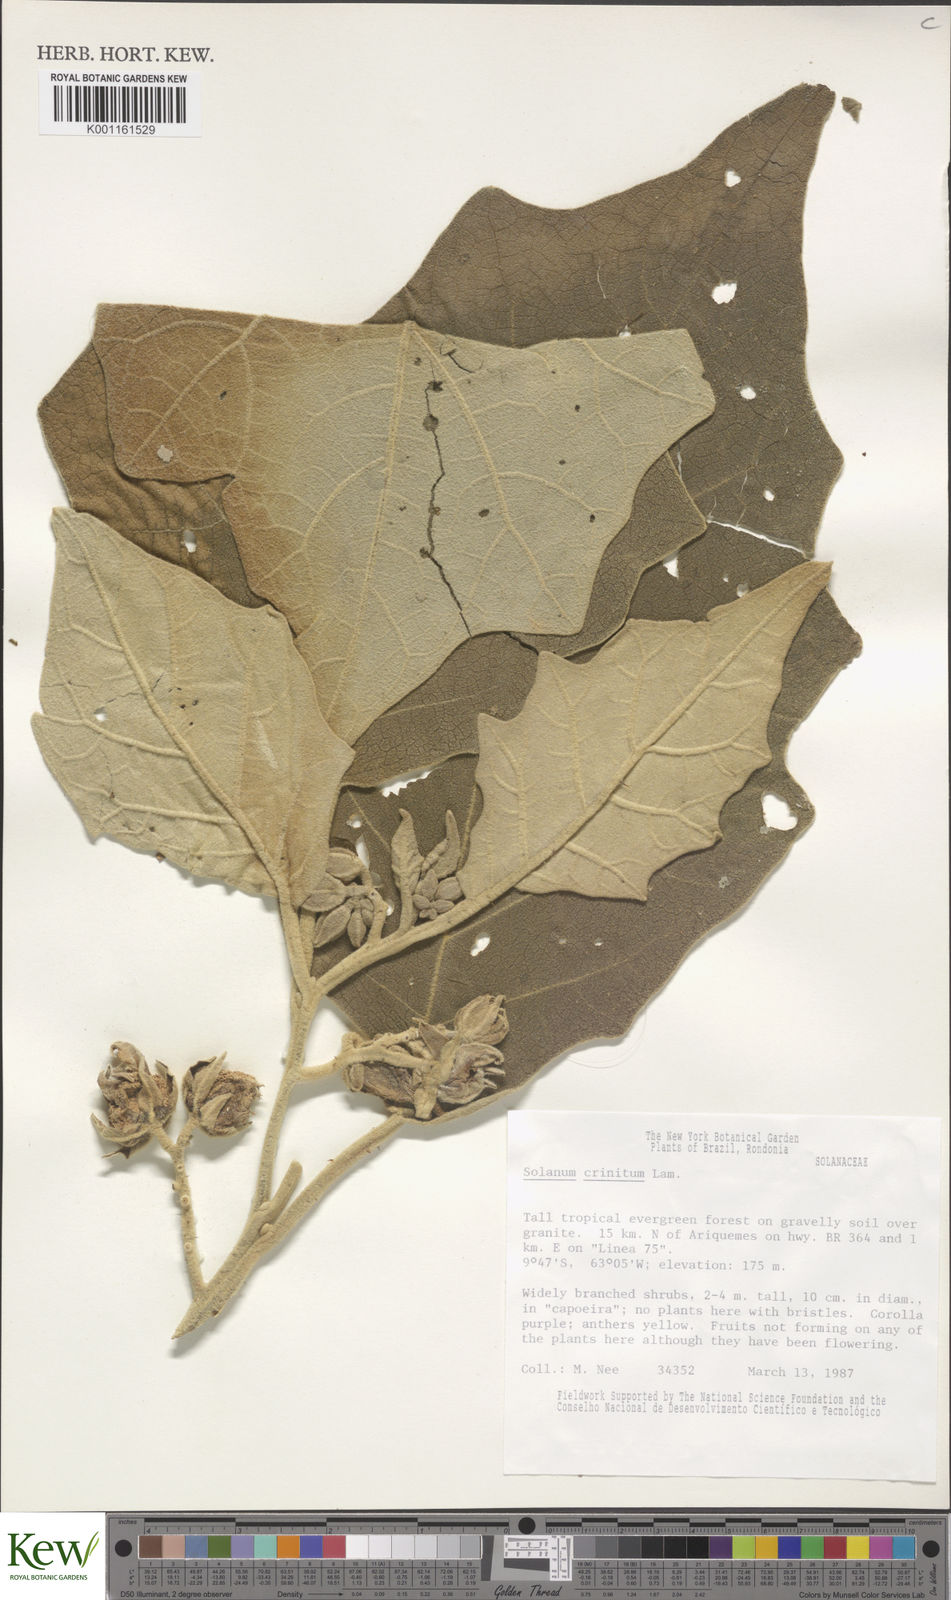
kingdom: Plantae
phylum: Tracheophyta
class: Magnoliopsida
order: Solanales
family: Solanaceae
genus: Solanum
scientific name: Solanum crinitum
